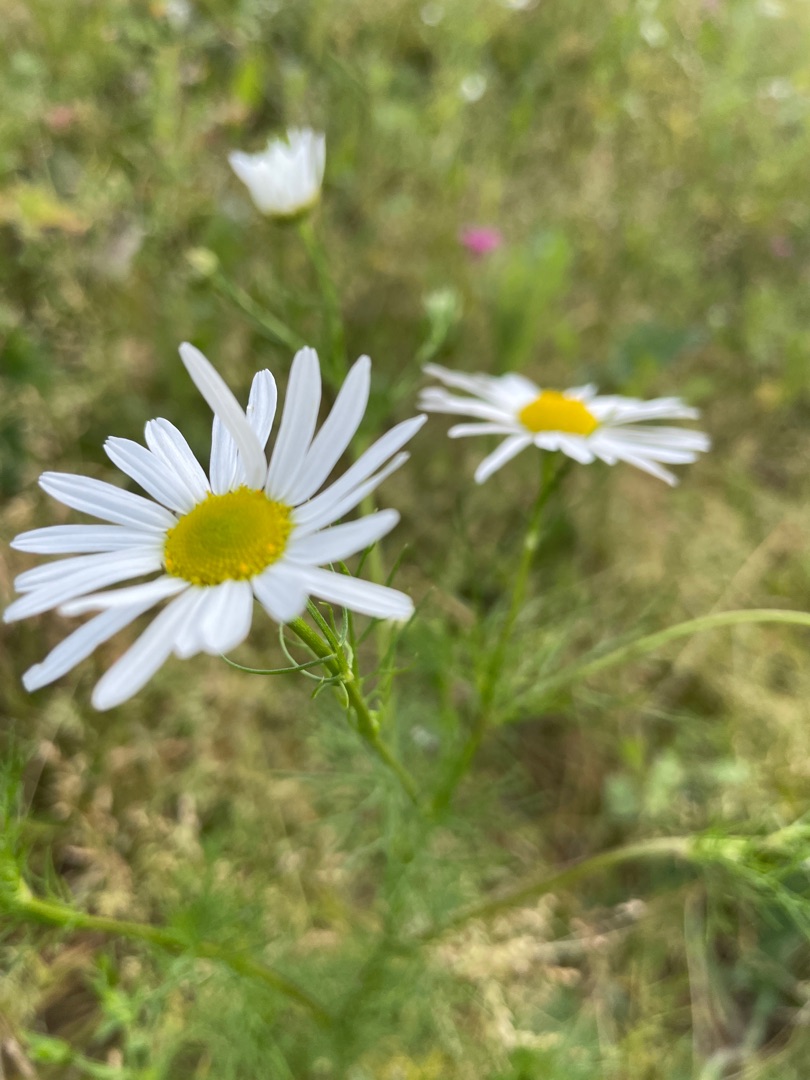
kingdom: Plantae
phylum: Tracheophyta
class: Magnoliopsida
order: Asterales
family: Asteraceae
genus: Tripleurospermum
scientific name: Tripleurospermum inodorum
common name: Lugtløs kamille
